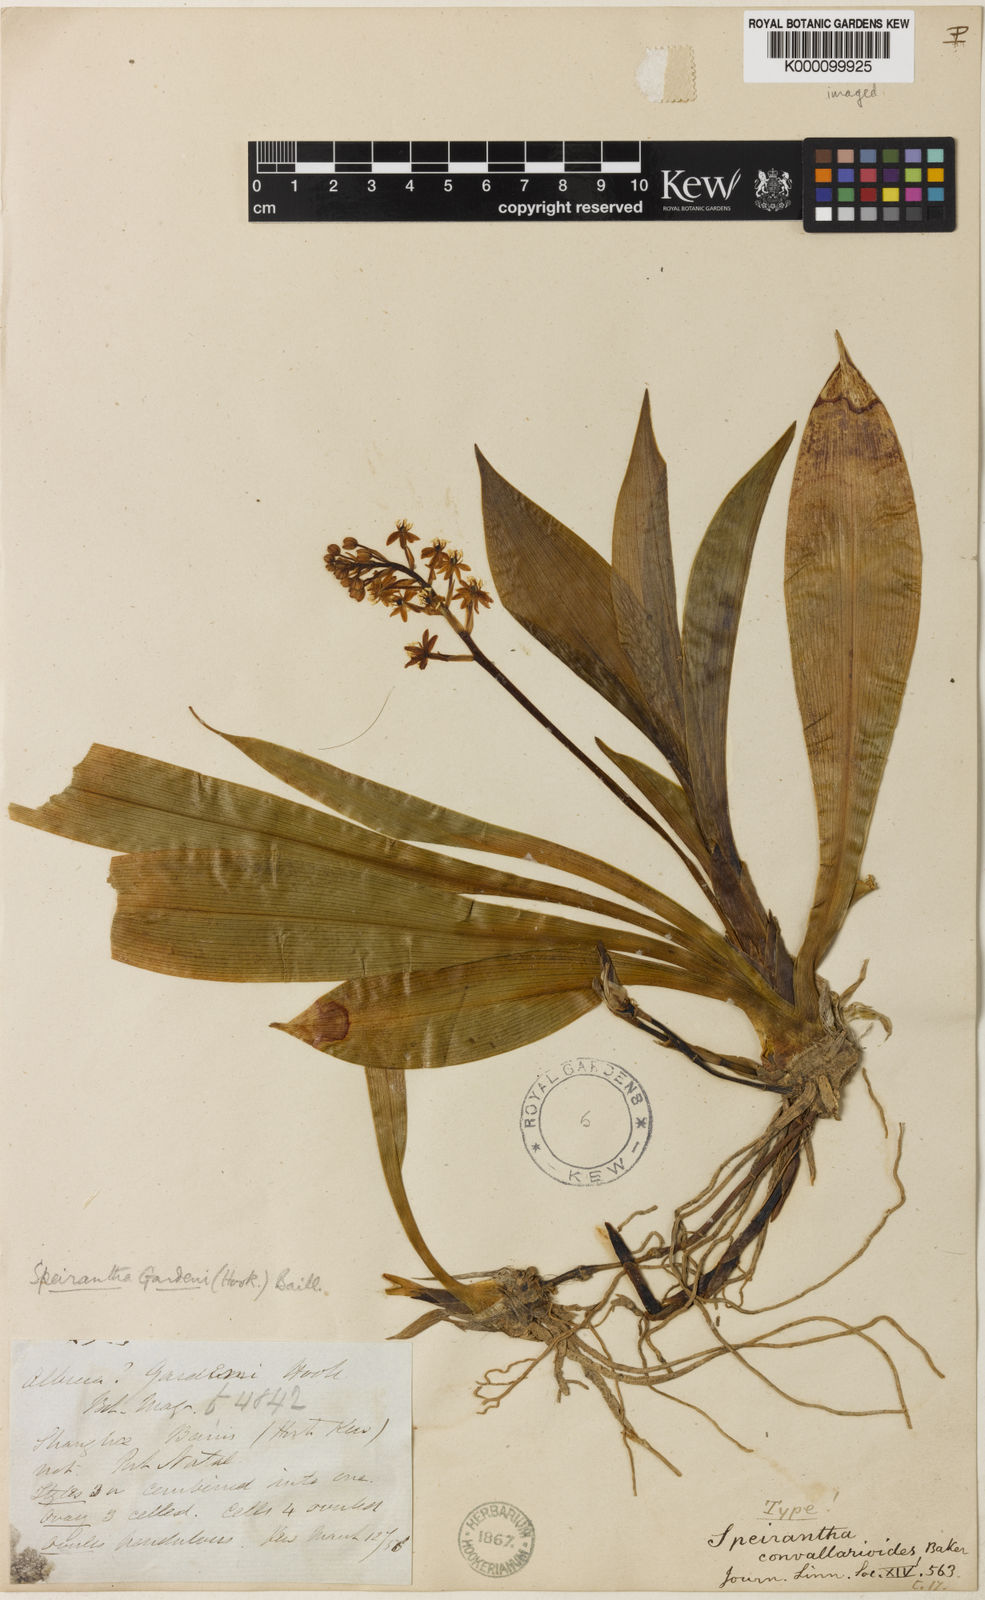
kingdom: Plantae
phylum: Tracheophyta
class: Liliopsida
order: Asparagales
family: Asparagaceae
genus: Speirantha
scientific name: Speirantha gardenii
